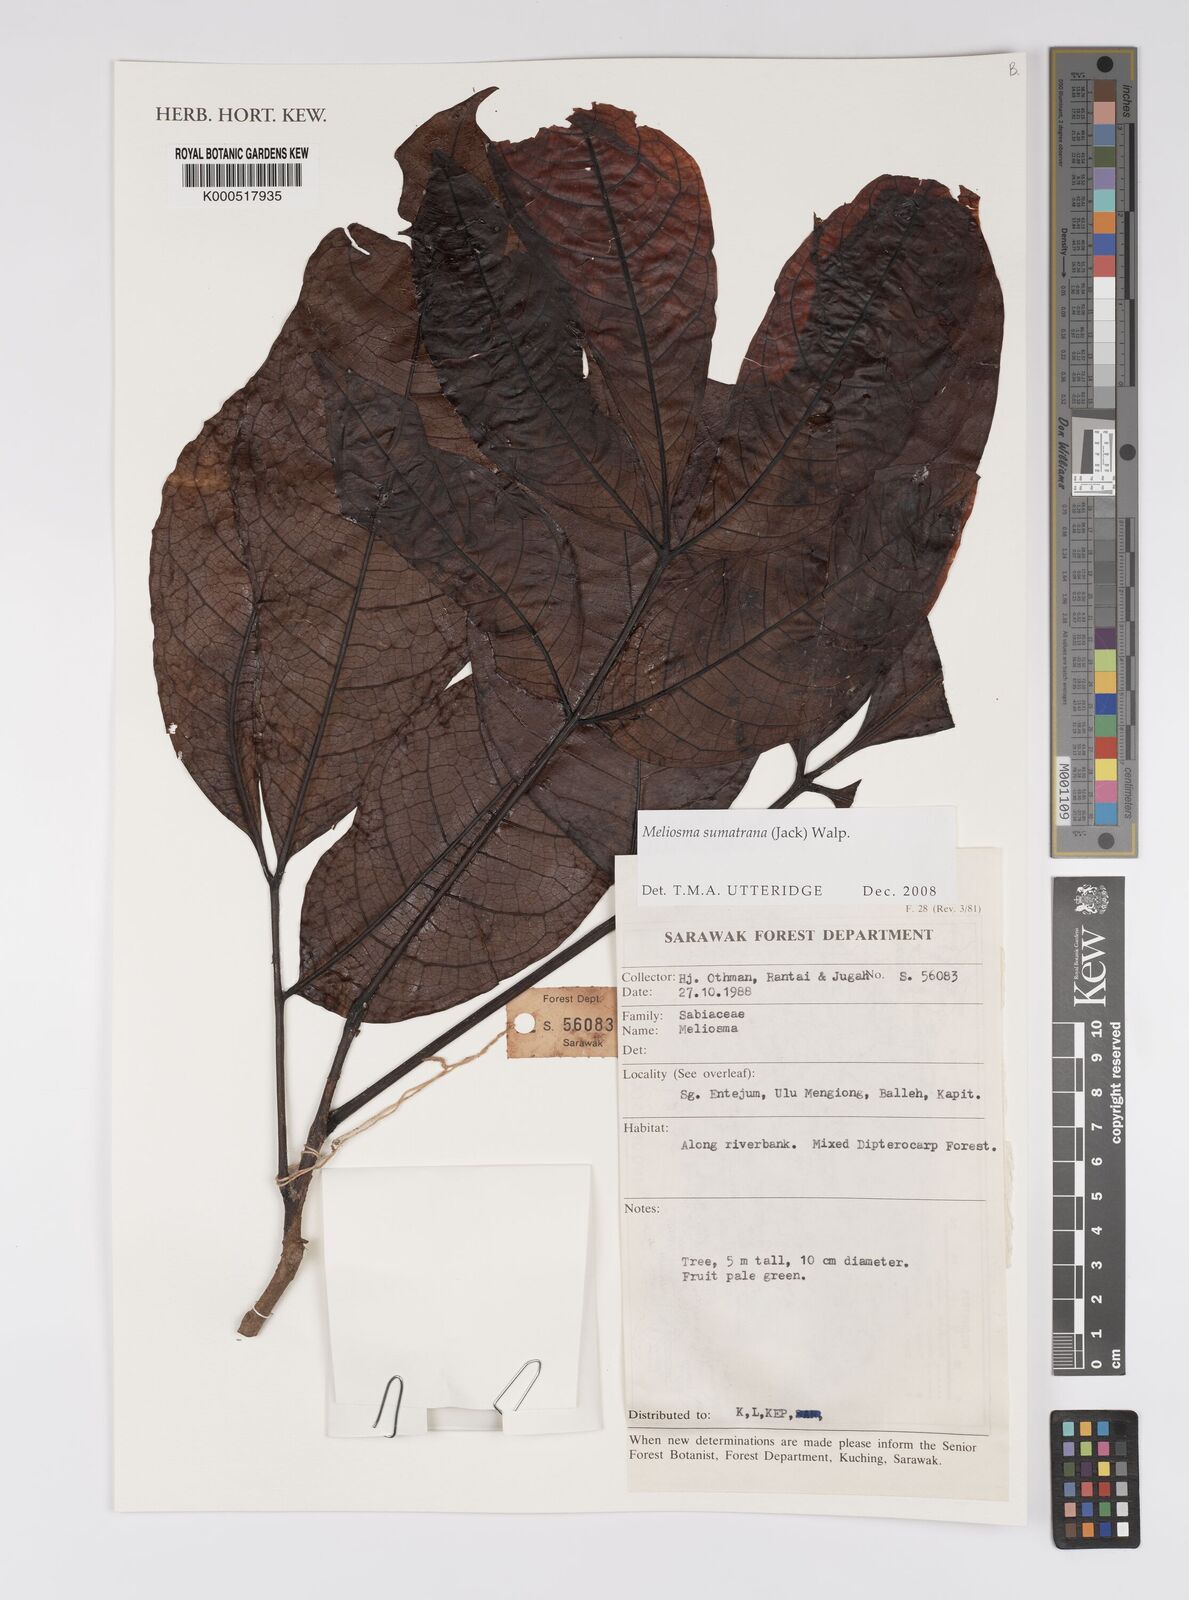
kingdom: Plantae
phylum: Tracheophyta
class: Magnoliopsida
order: Proteales
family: Sabiaceae
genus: Meliosma
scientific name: Meliosma sumatrana
